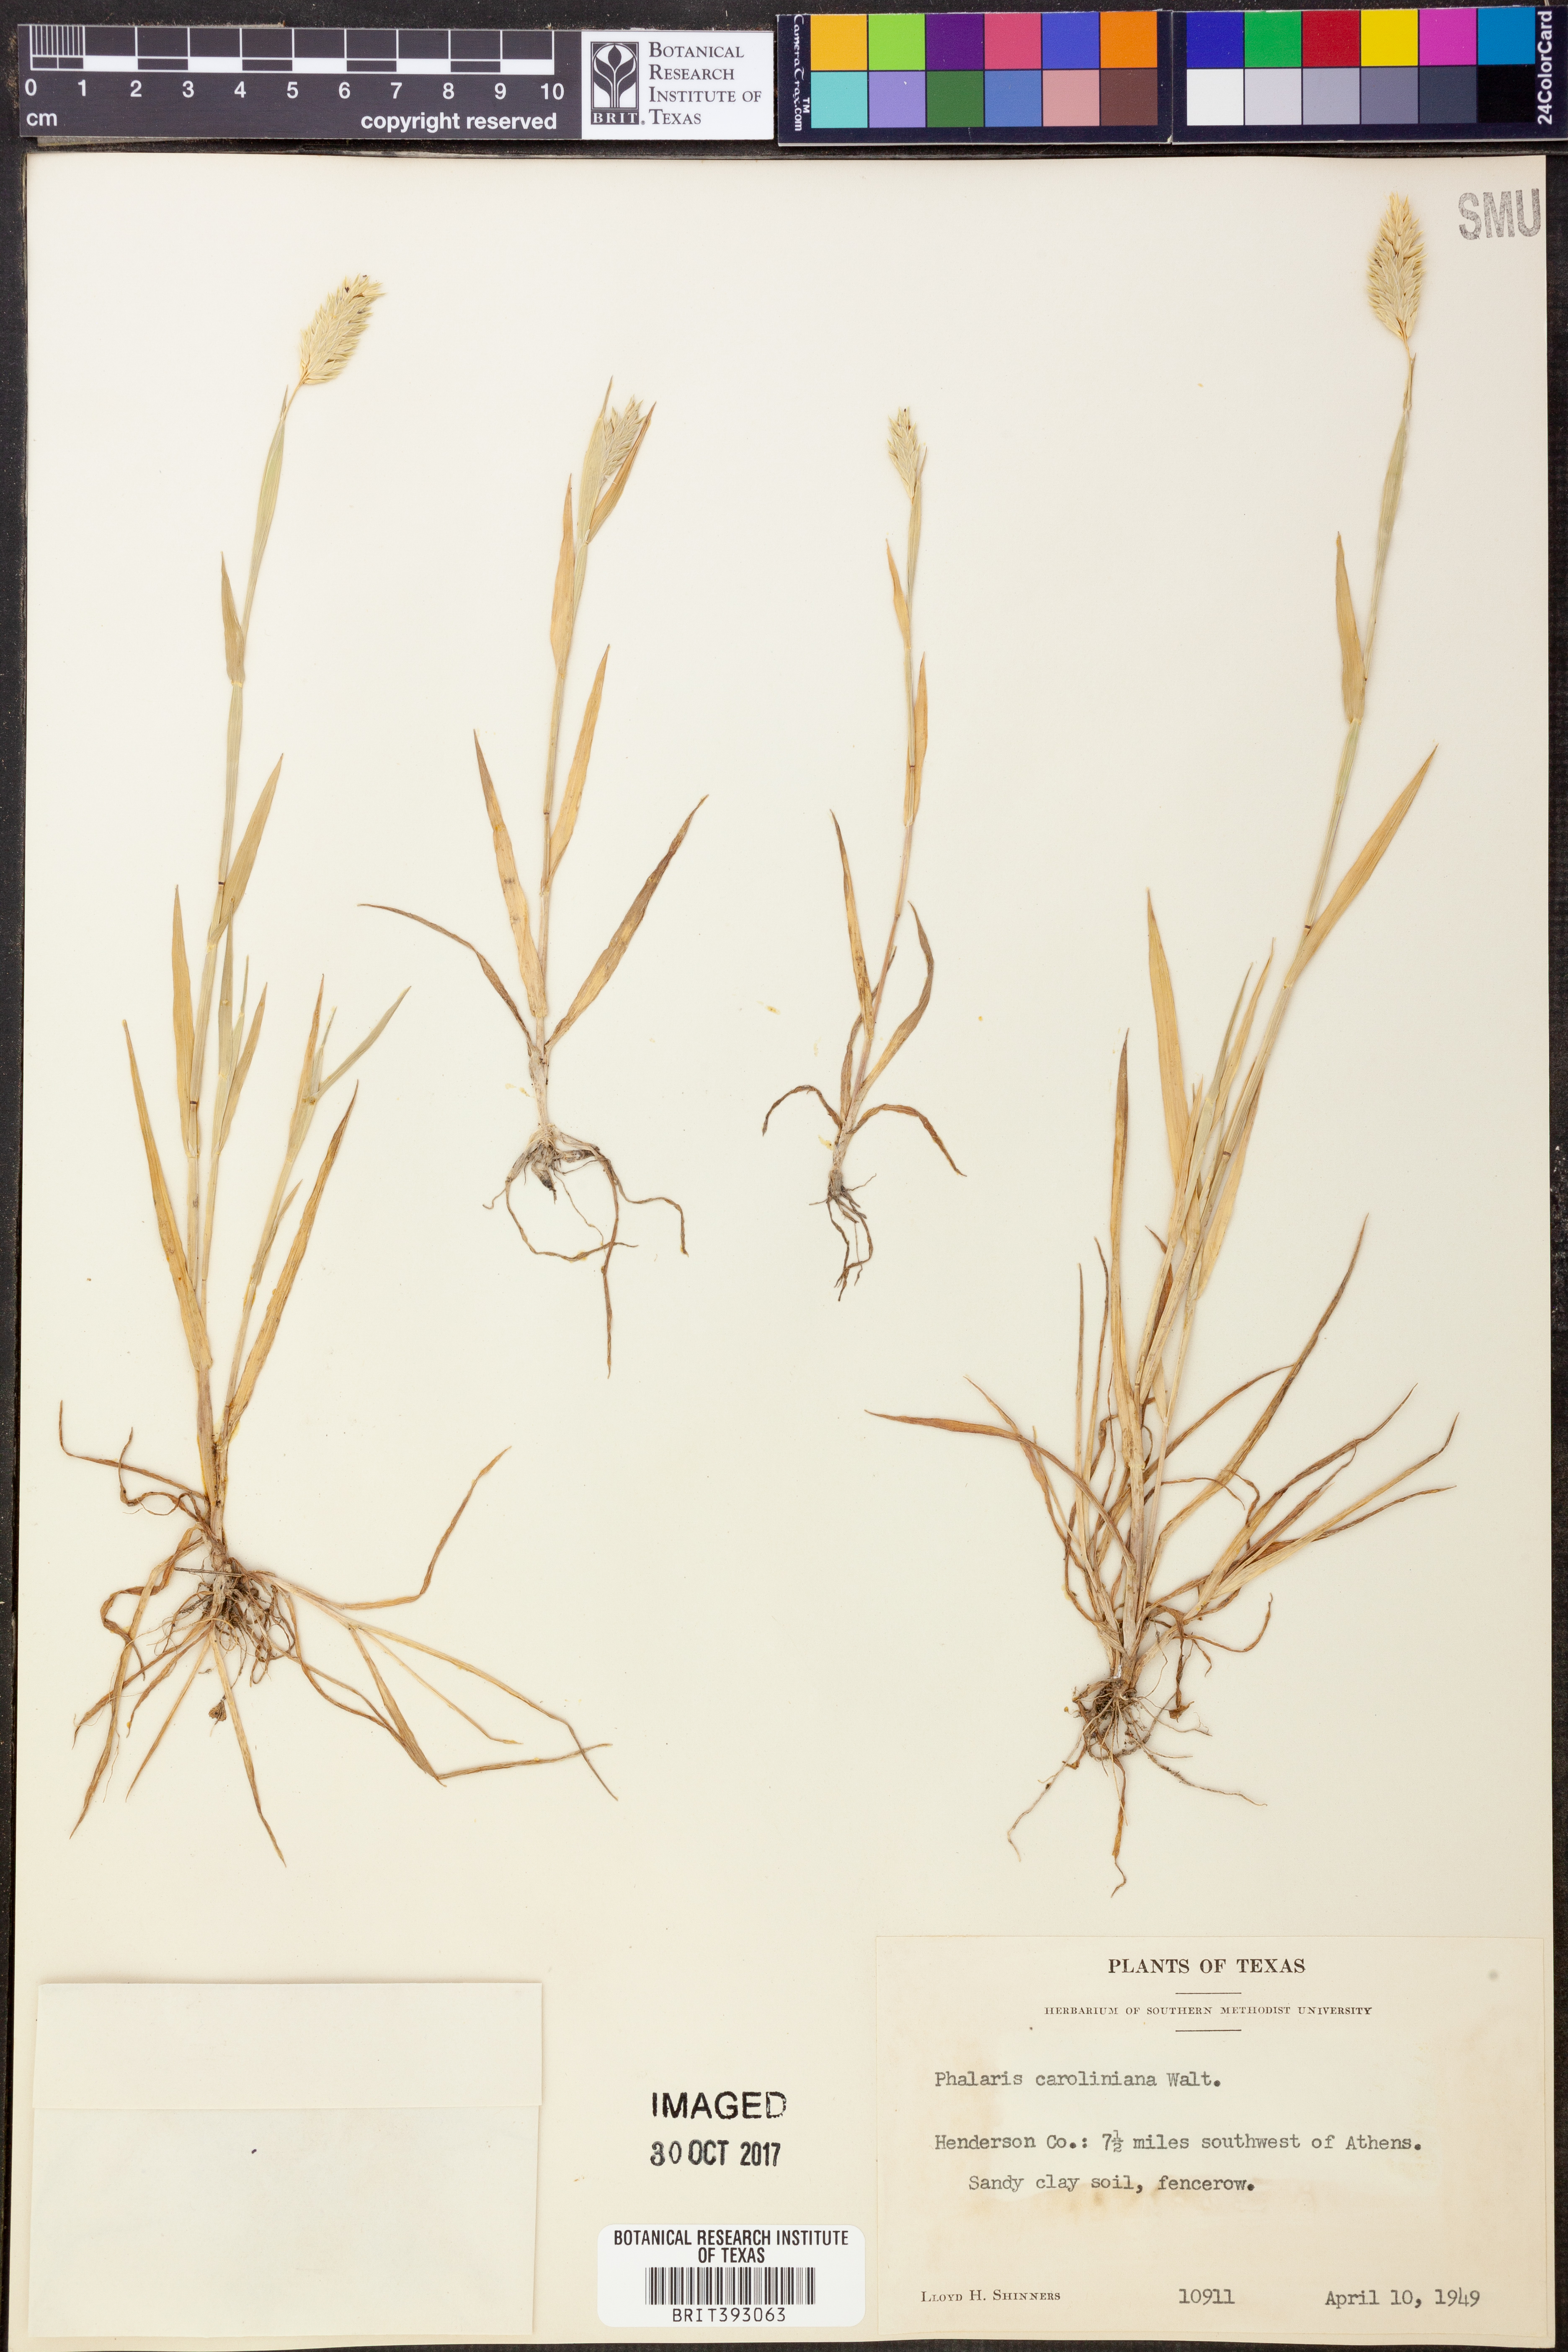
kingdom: Plantae
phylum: Tracheophyta
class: Liliopsida
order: Poales
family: Poaceae
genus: Phalaris
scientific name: Phalaris caroliniana
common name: May grass
